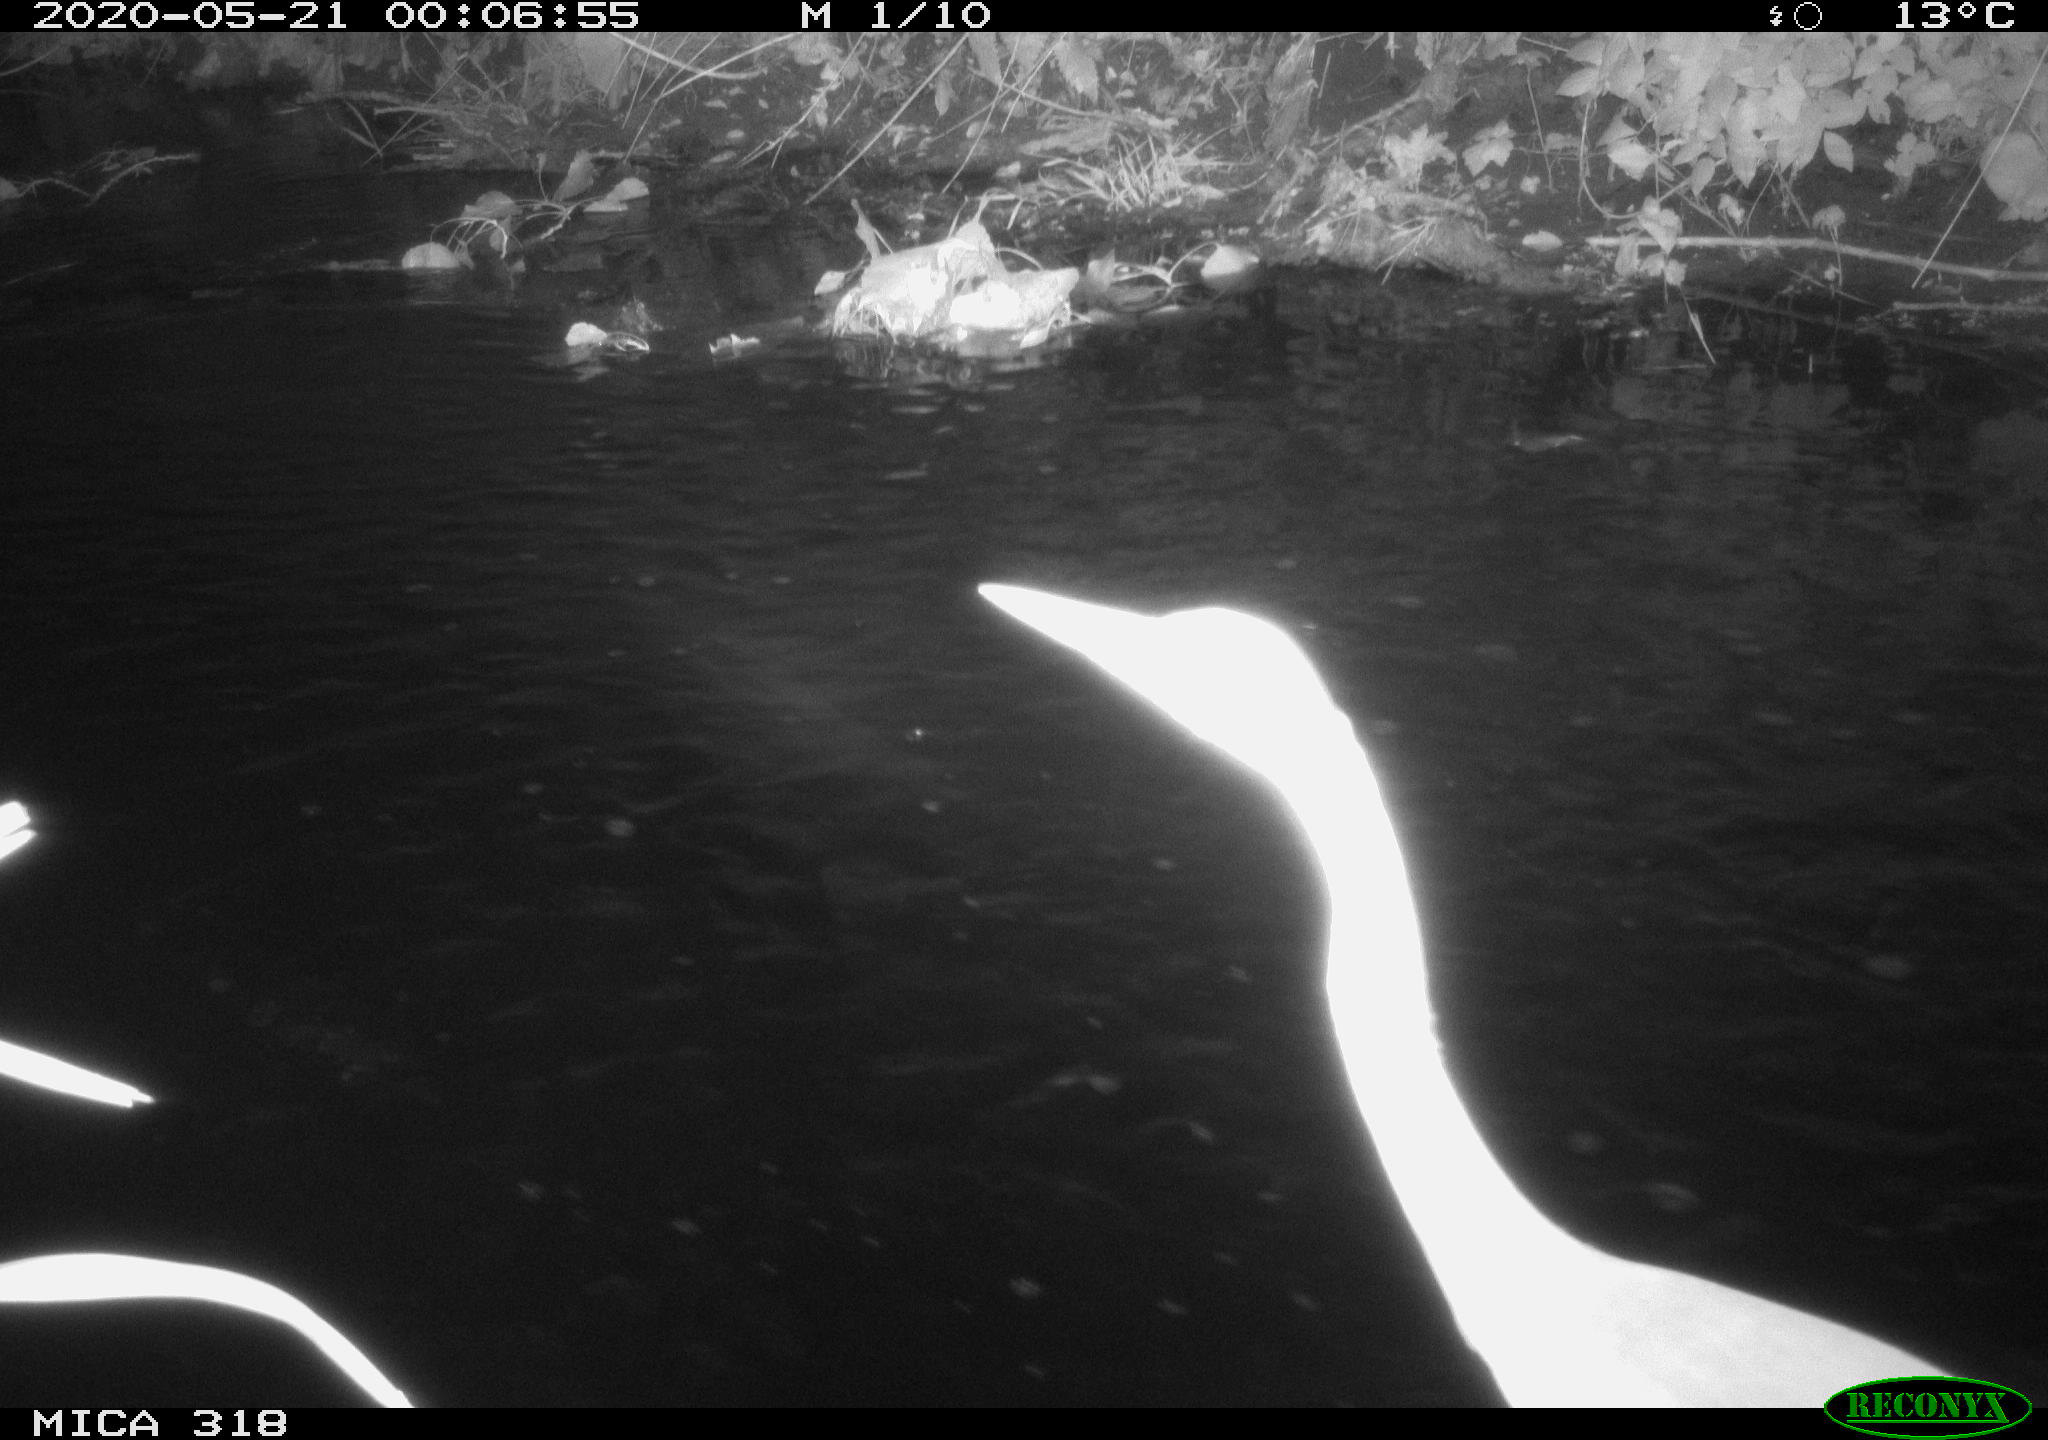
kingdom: Animalia
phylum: Chordata
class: Aves
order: Pelecaniformes
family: Ardeidae
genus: Ardea
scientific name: Ardea cinerea
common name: Grey heron
